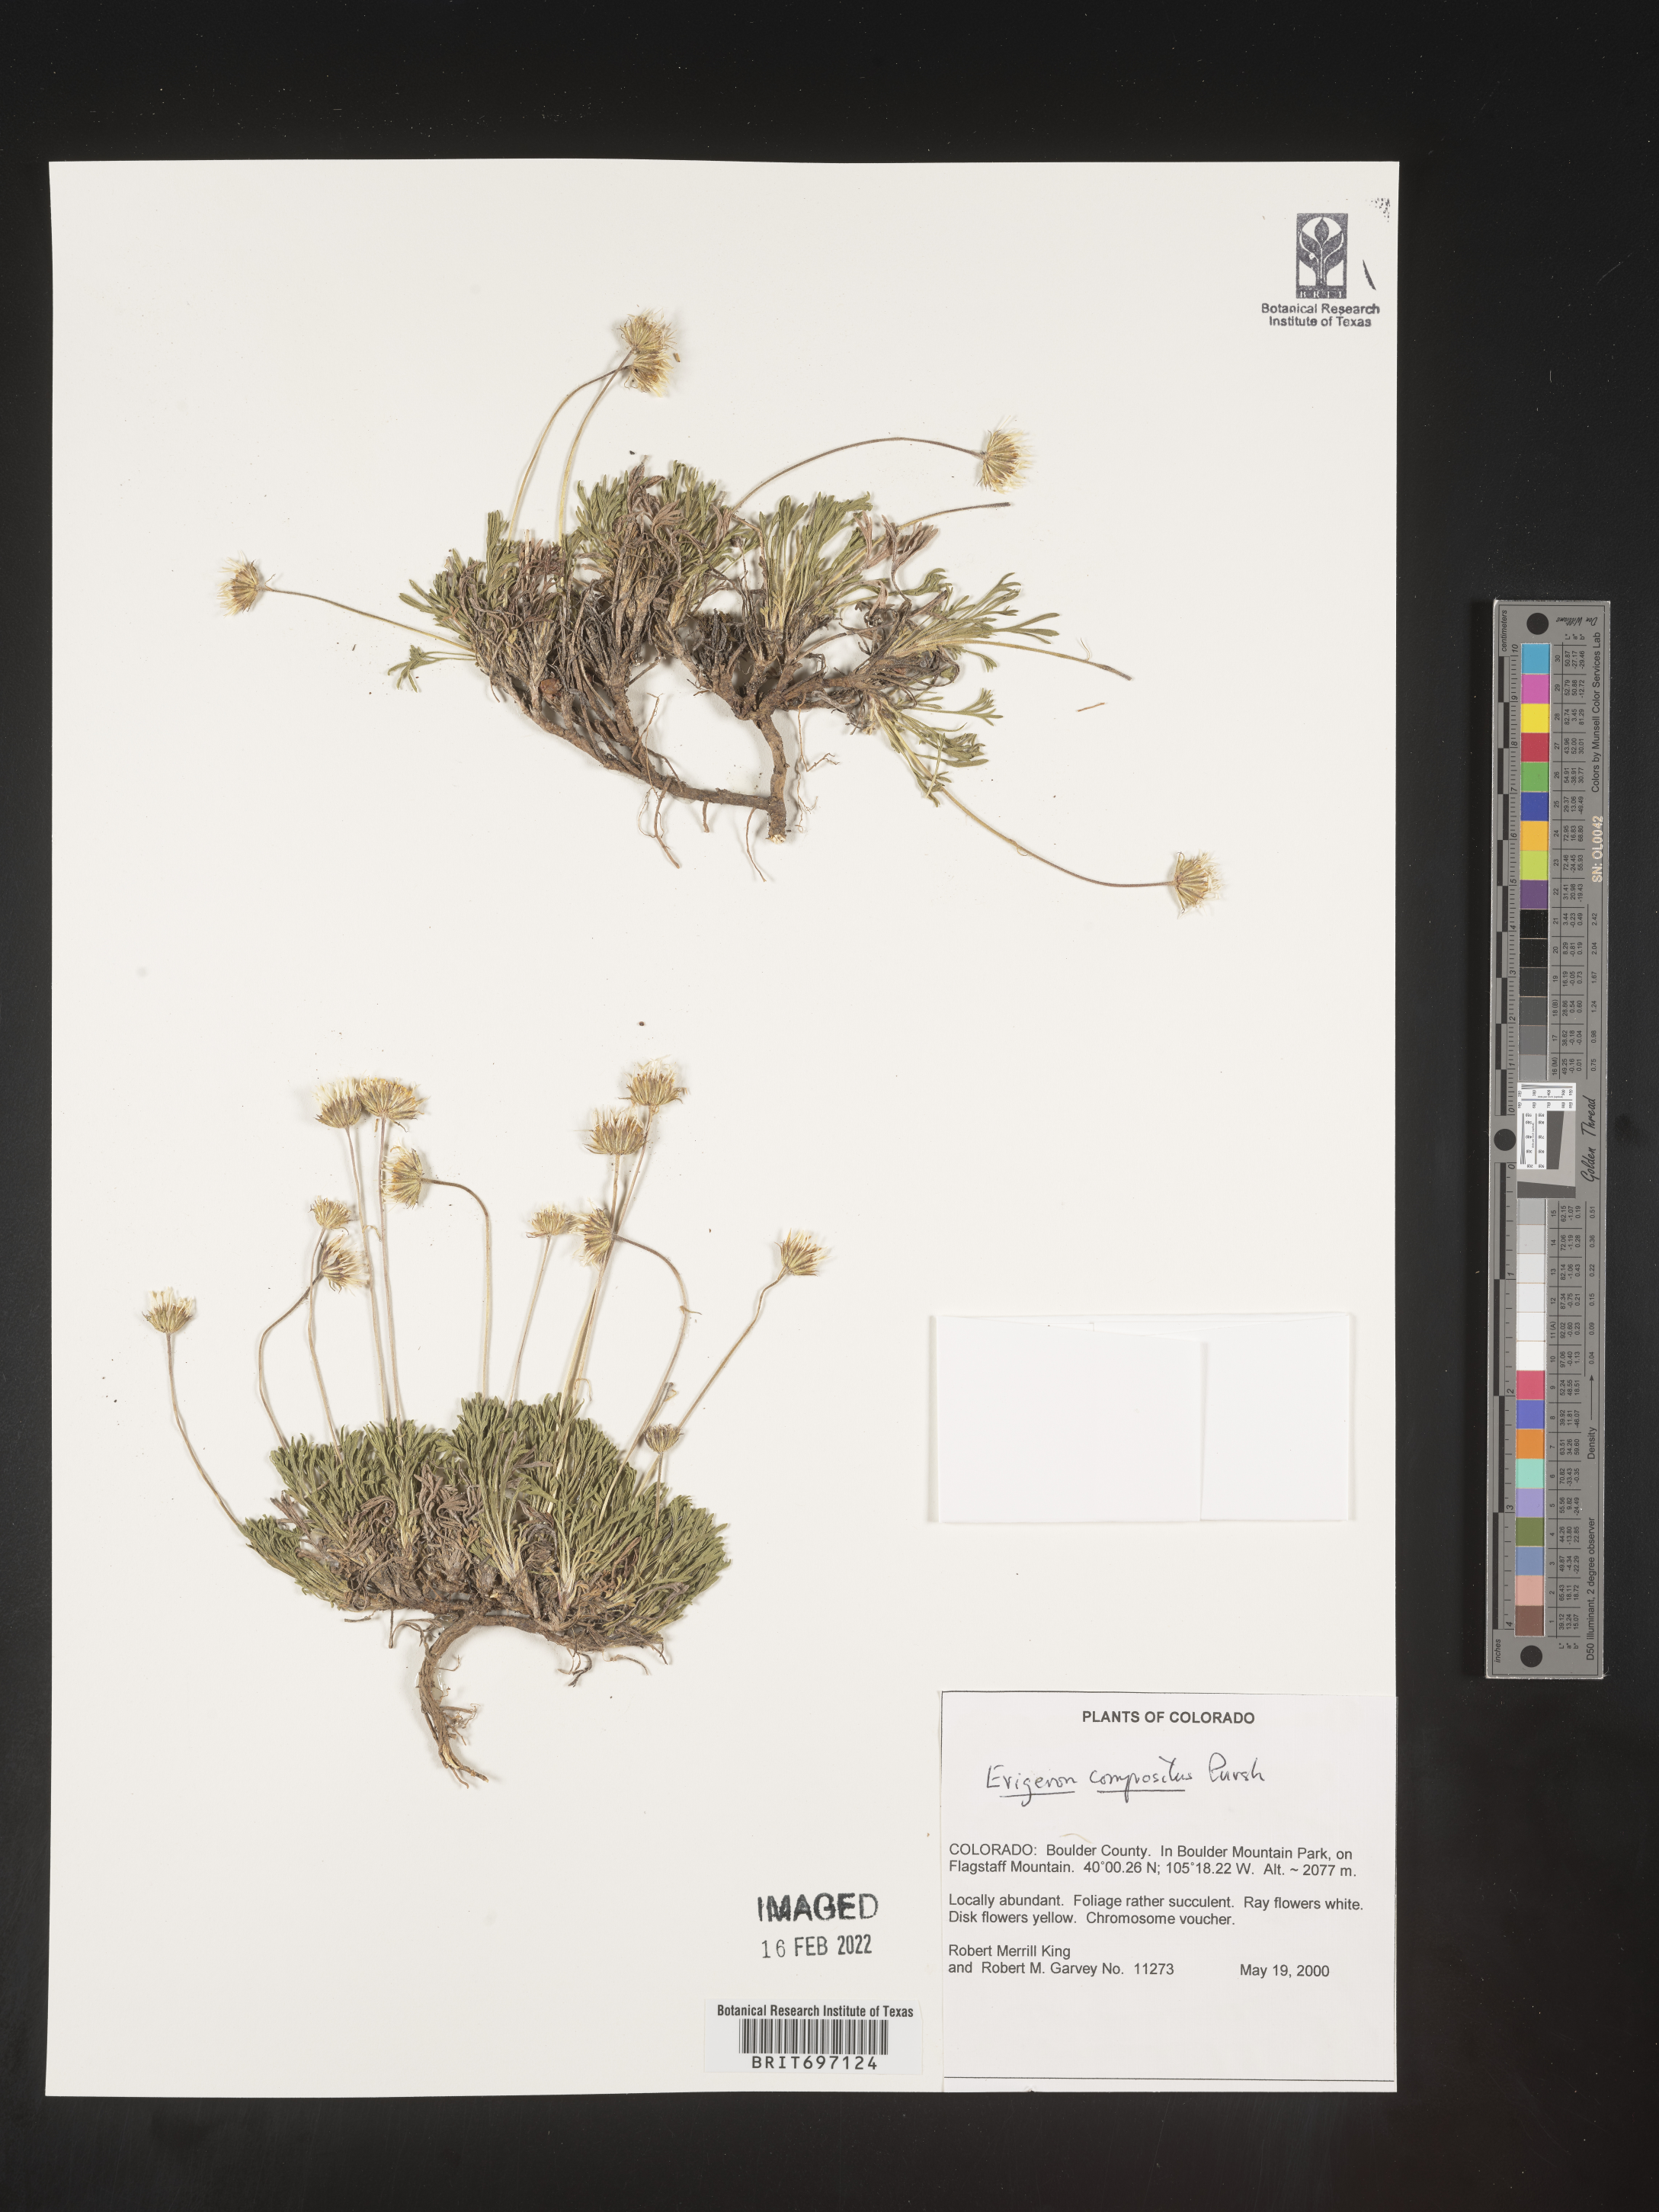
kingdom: Plantae
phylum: Tracheophyta
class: Magnoliopsida
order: Asterales
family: Asteraceae
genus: Erigeron
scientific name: Erigeron compositus
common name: Dwarf mountain fleabane
